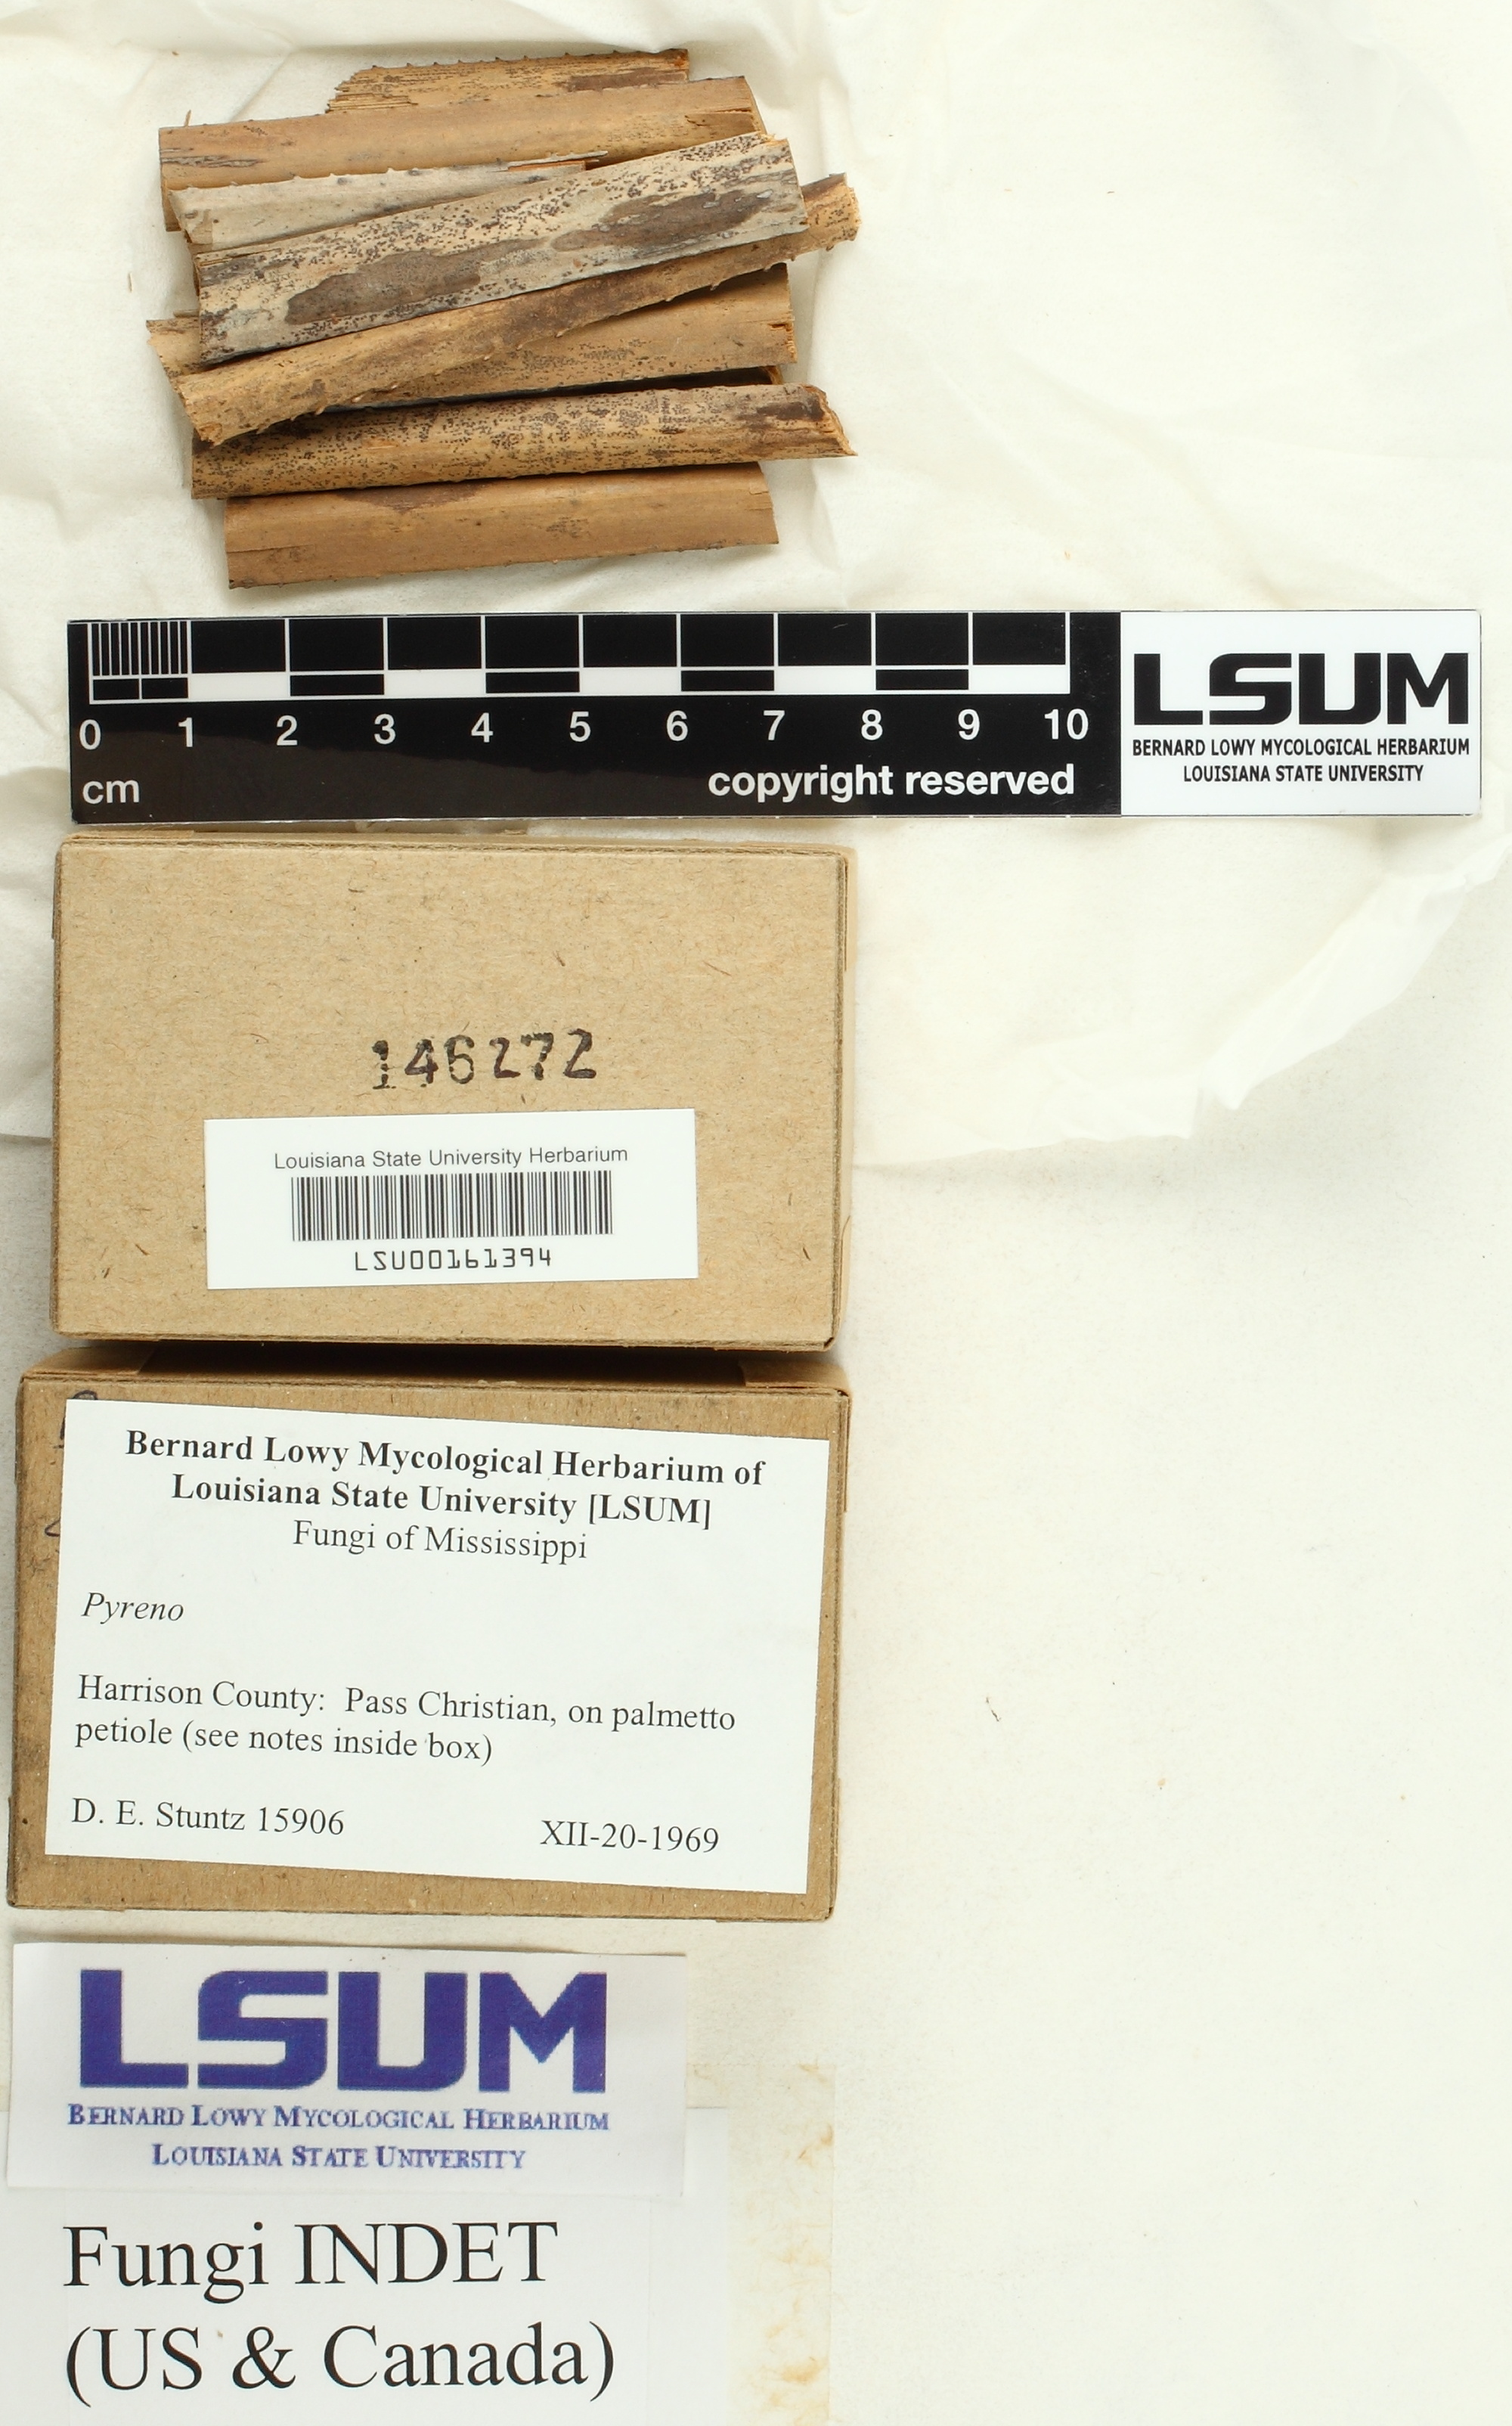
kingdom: Fungi
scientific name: Fungi
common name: Fungi
